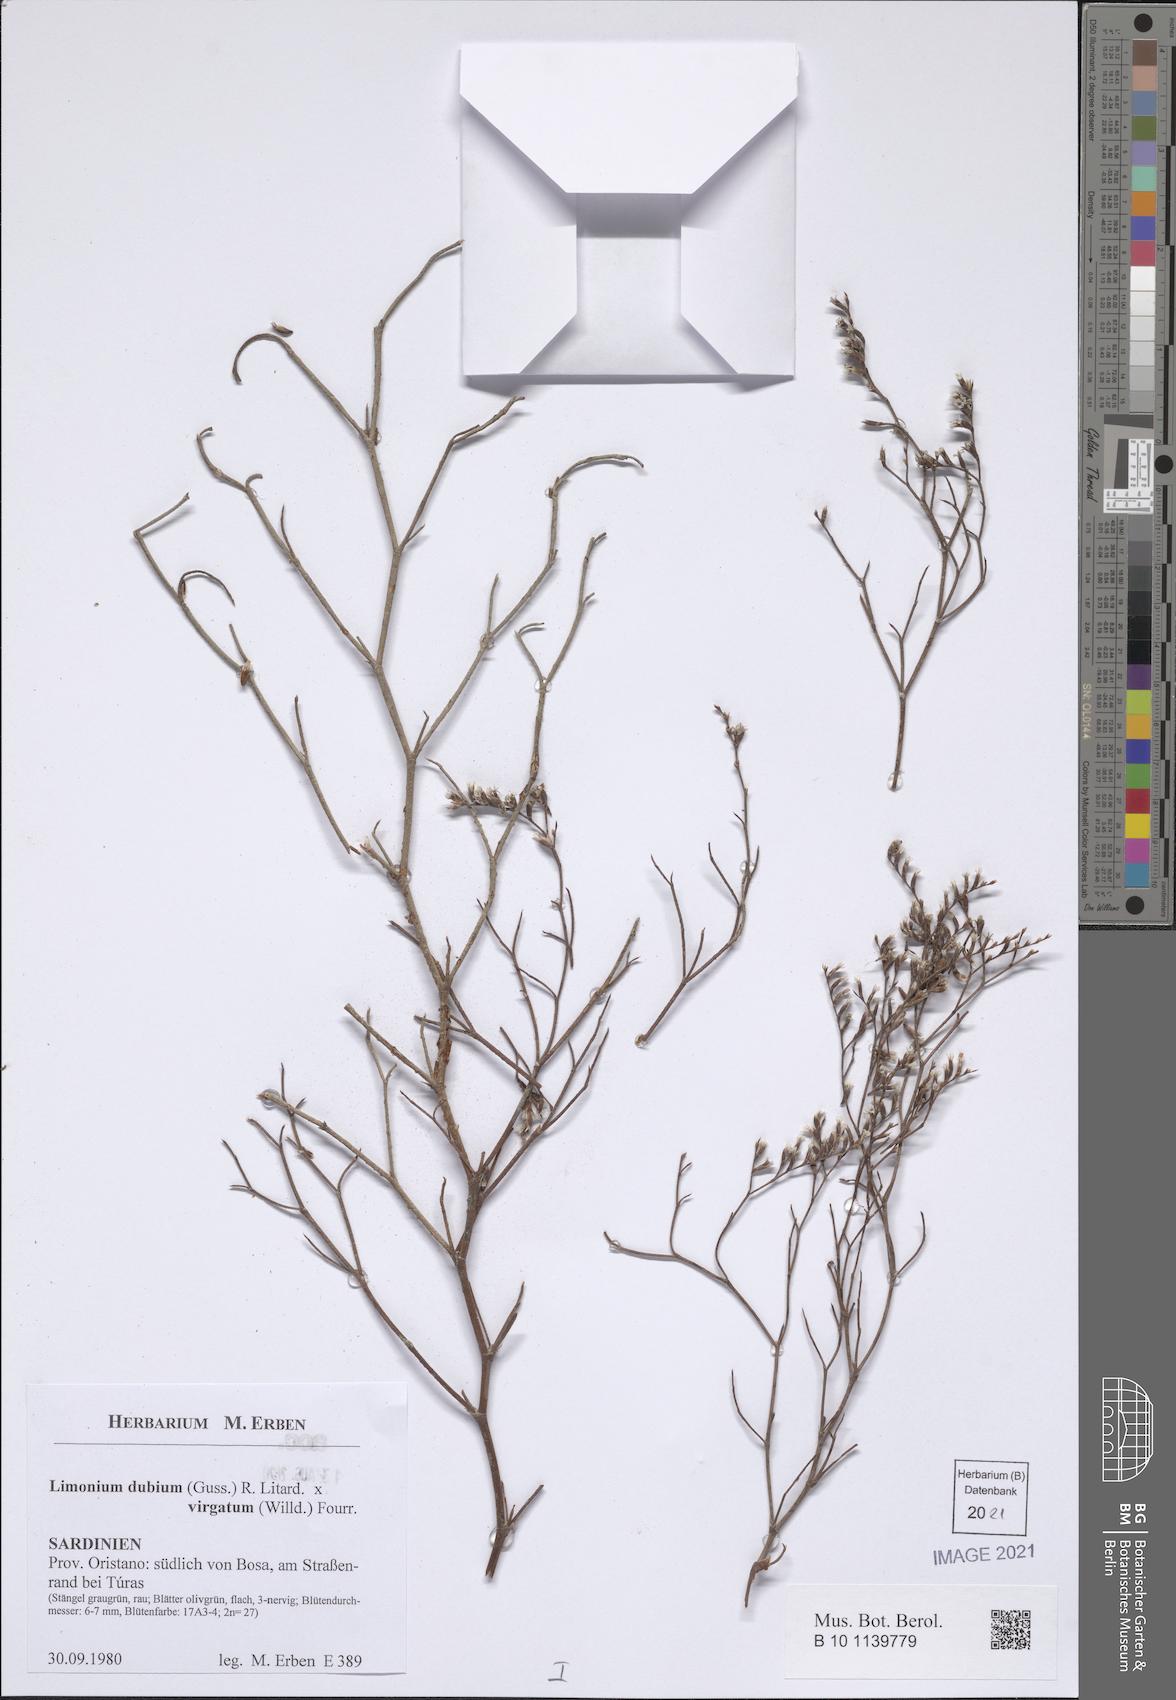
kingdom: Plantae
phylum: Tracheophyta
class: Magnoliopsida
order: Caryophyllales
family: Plumbaginaceae
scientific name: Plumbaginaceae
